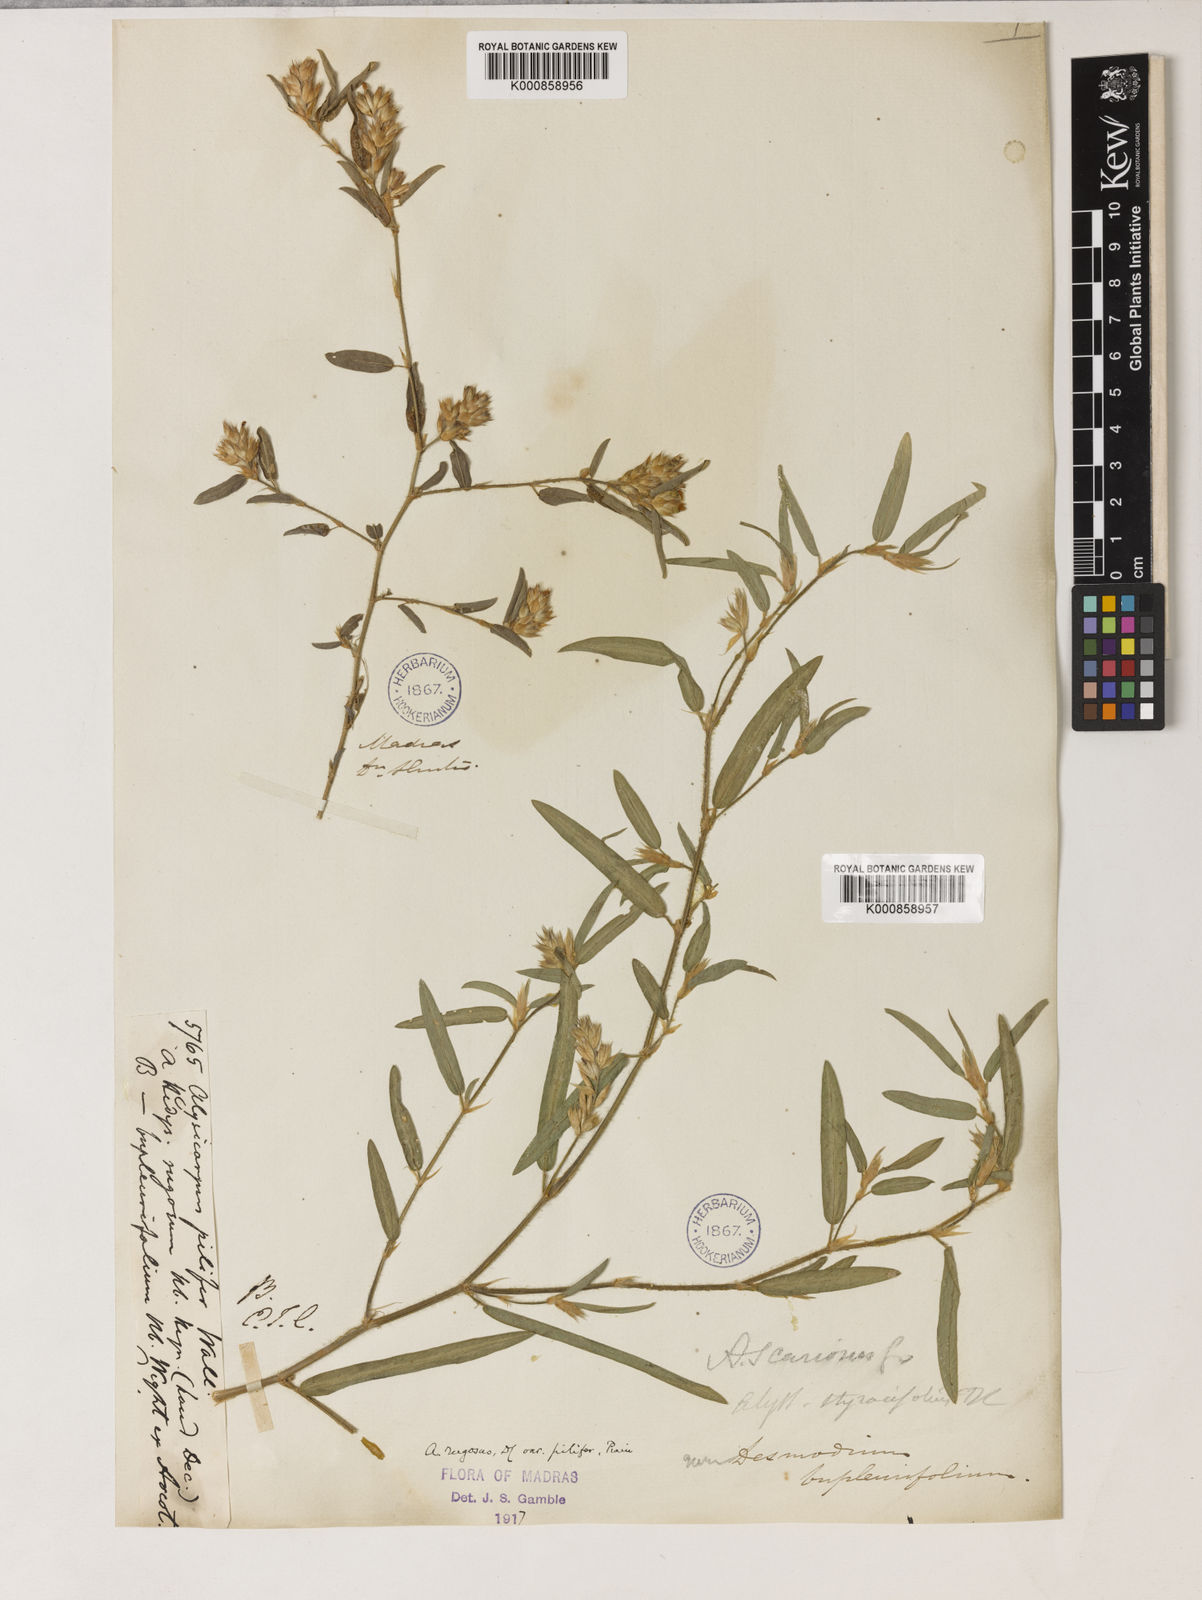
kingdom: Plantae
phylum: Tracheophyta
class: Magnoliopsida
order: Fabales
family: Fabaceae
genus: Alysicarpus
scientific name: Alysicarpus rugosus
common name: Red moneywort
